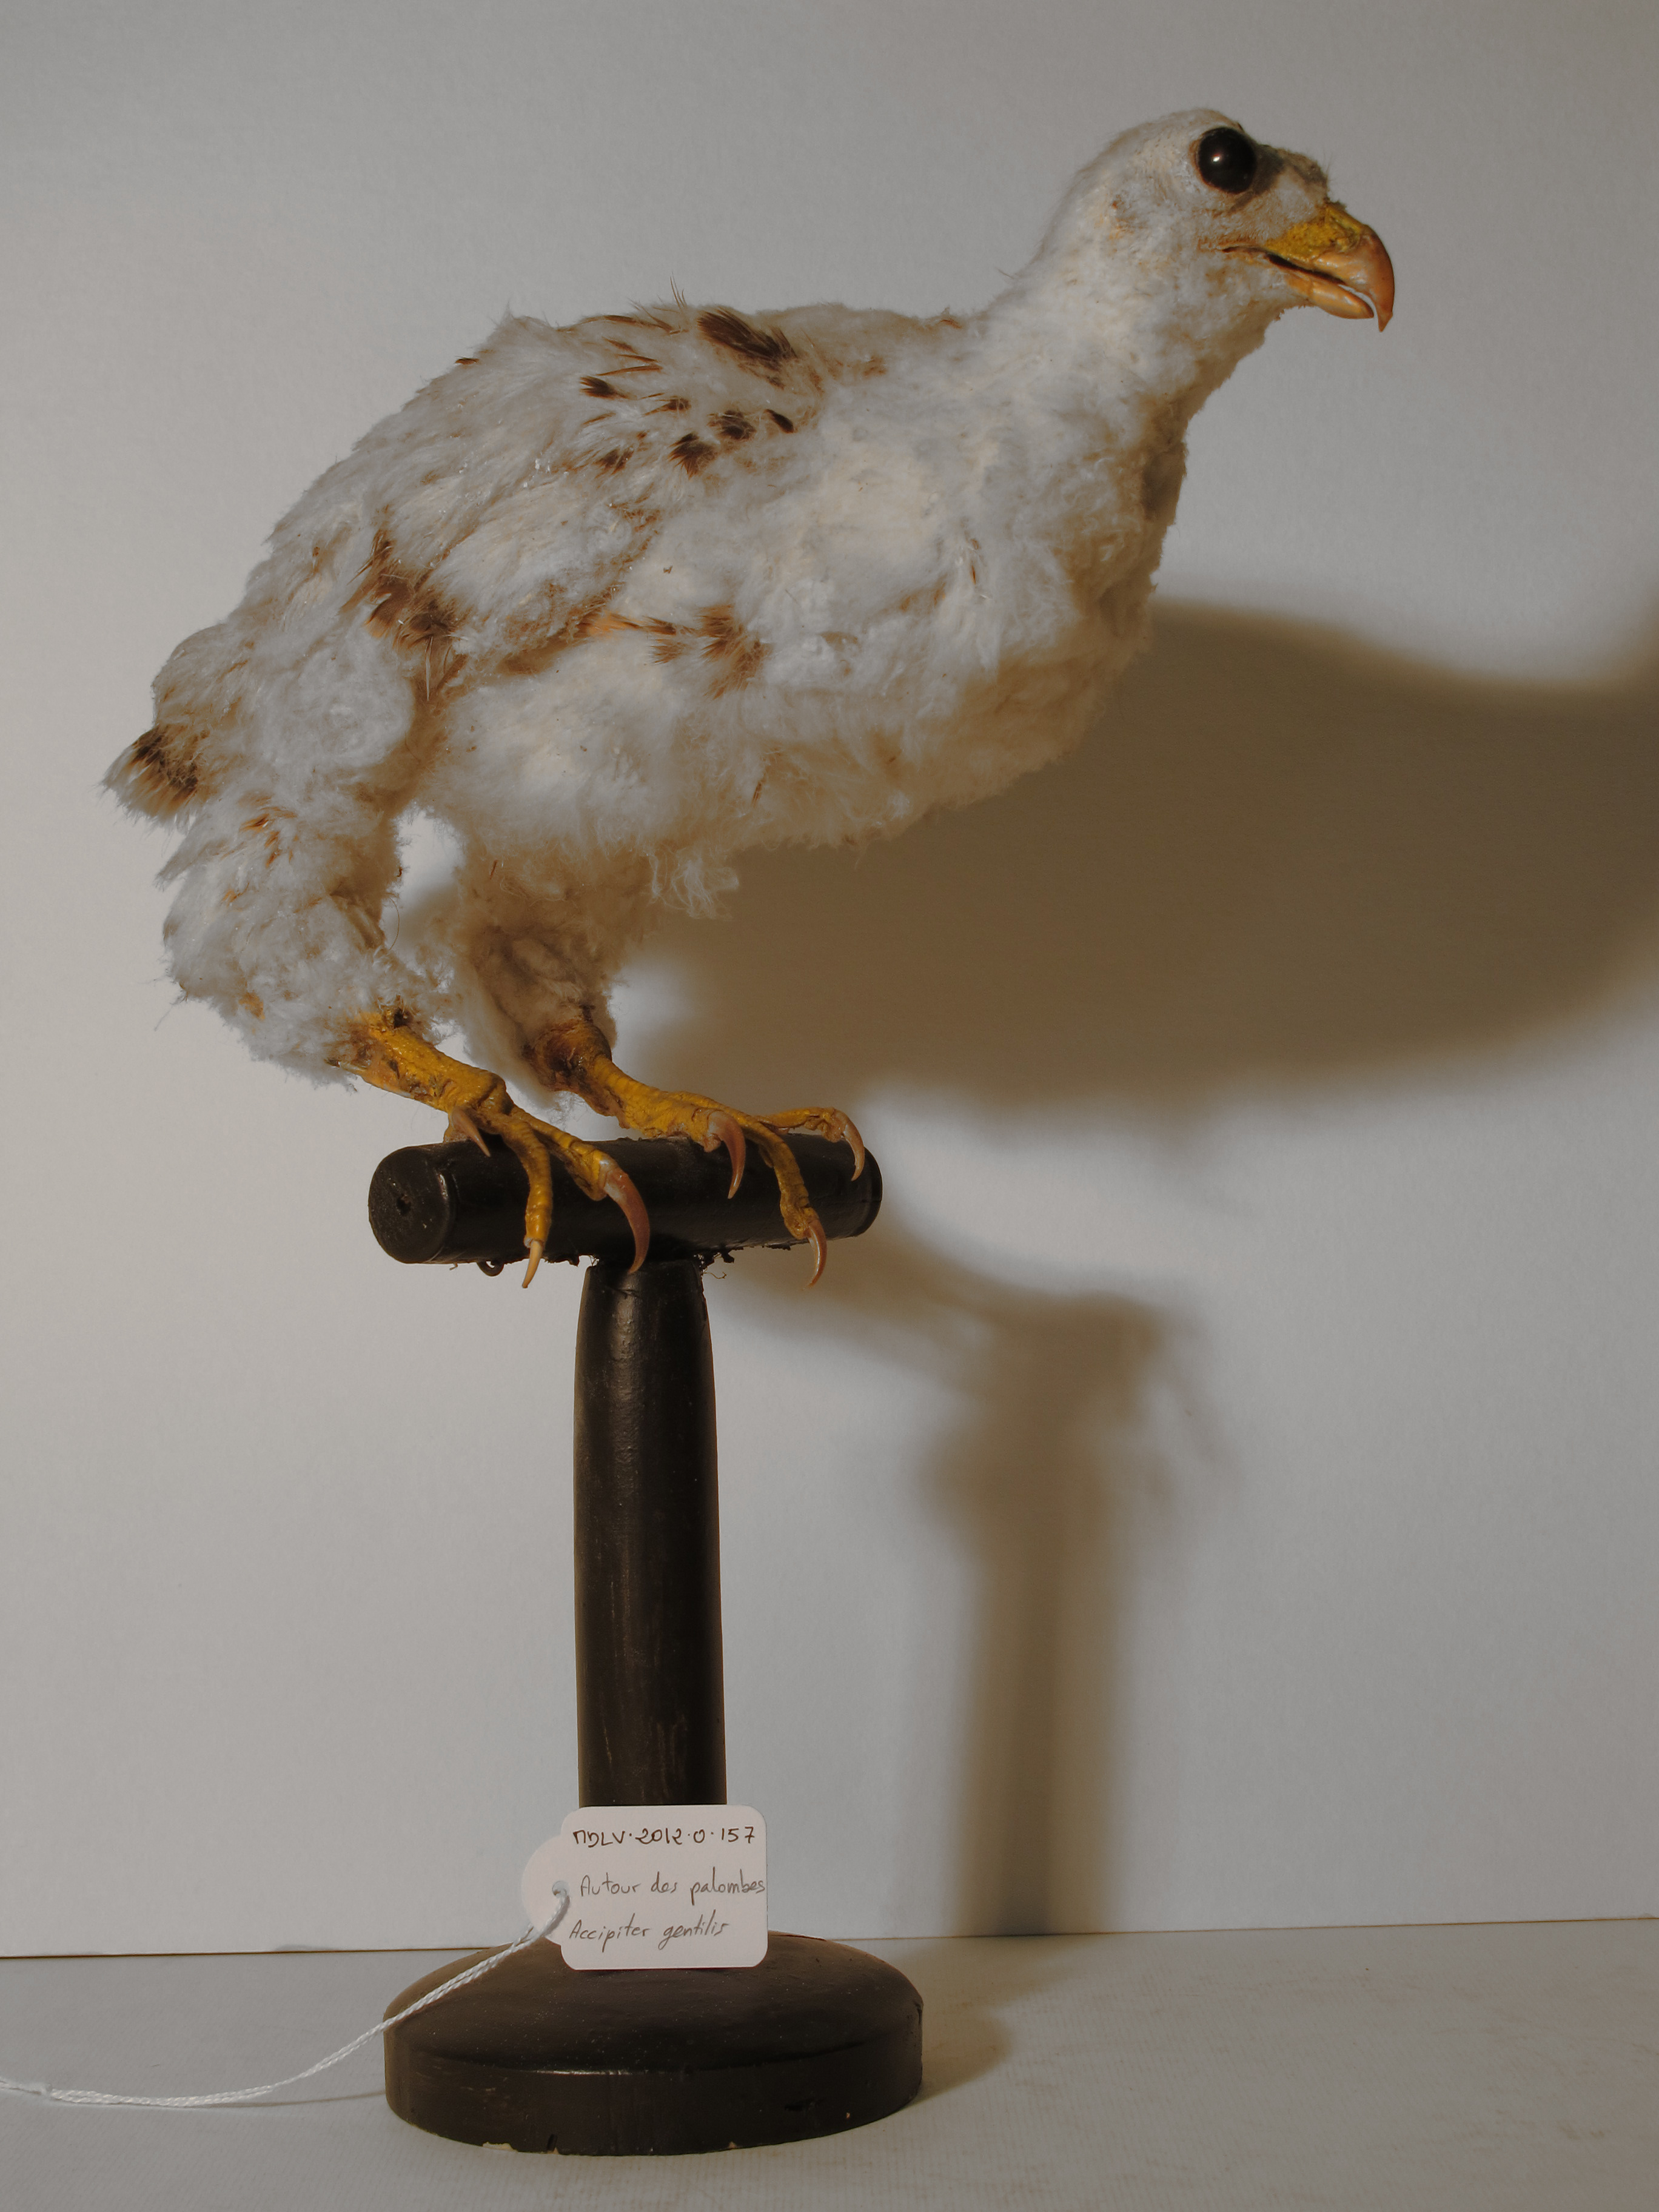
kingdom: Animalia
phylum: Chordata
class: Aves
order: Accipitriformes
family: Accipitridae
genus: Accipiter
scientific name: Accipiter gentilis
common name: Northern Goshawk
